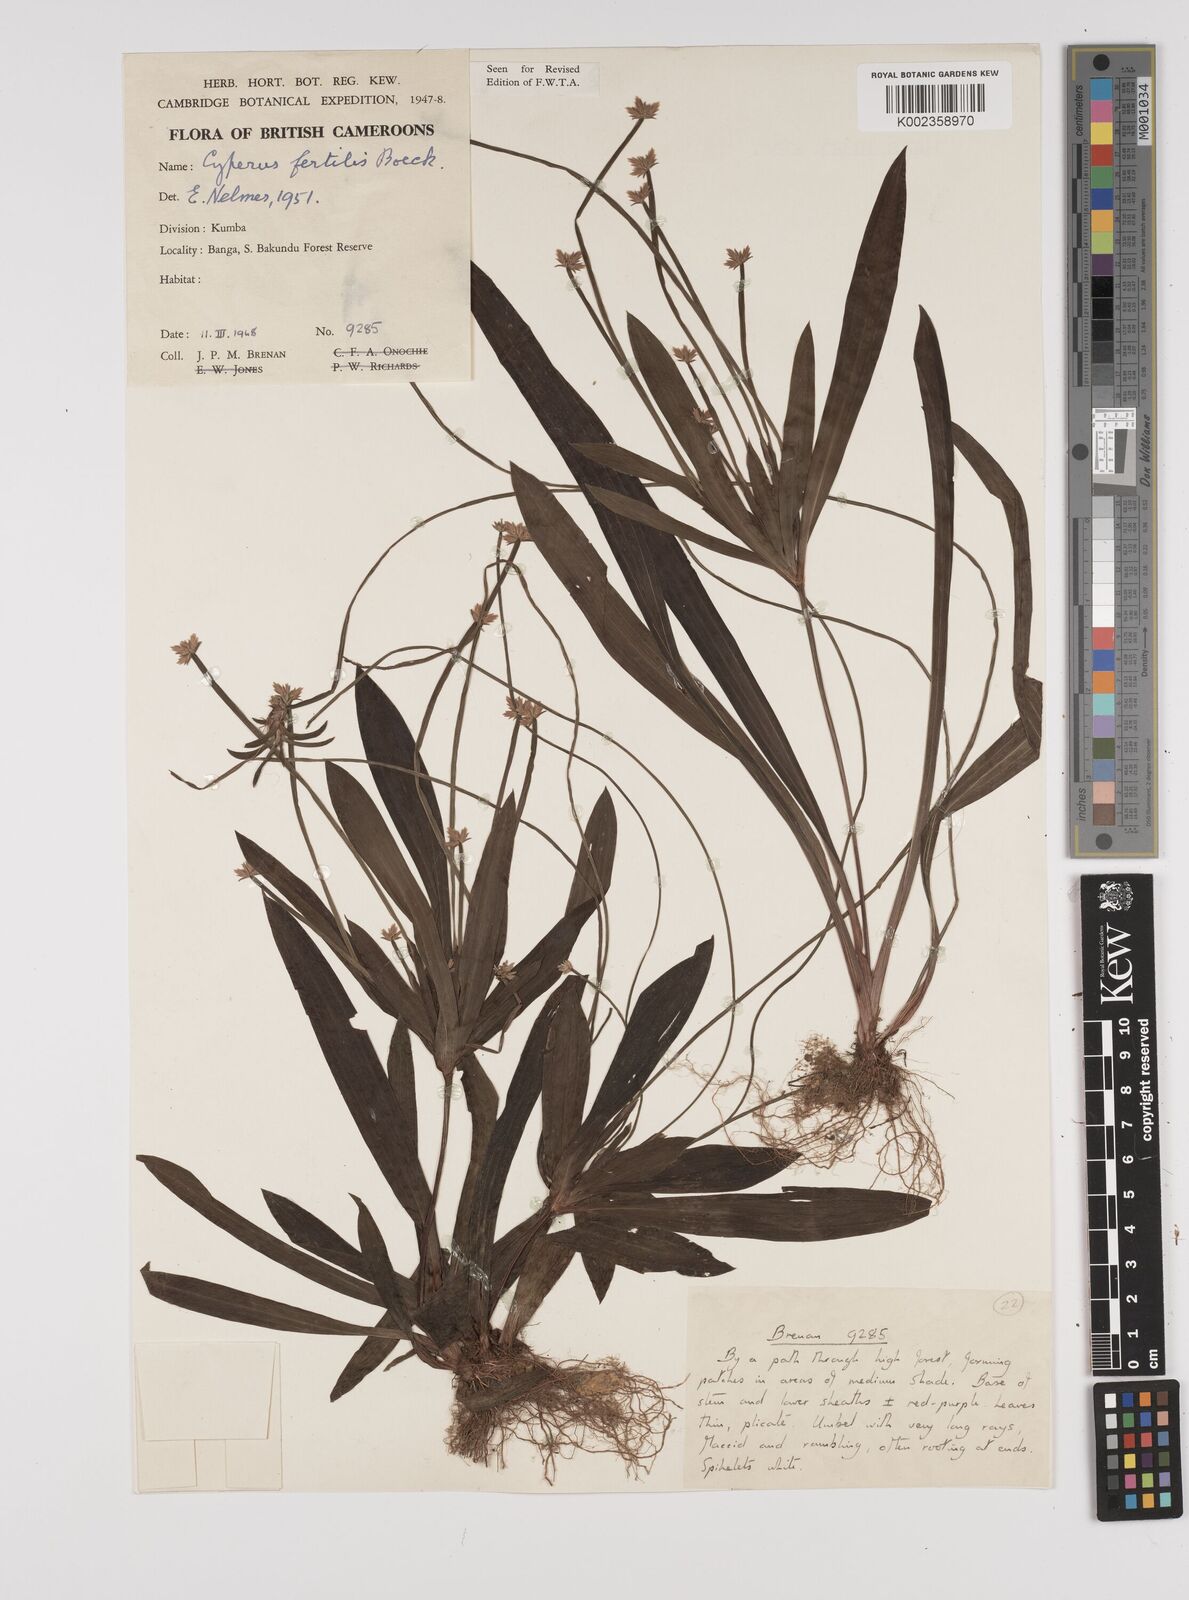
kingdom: Plantae
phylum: Tracheophyta
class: Liliopsida
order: Poales
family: Cyperaceae
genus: Cyperus
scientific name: Cyperus fertilis
